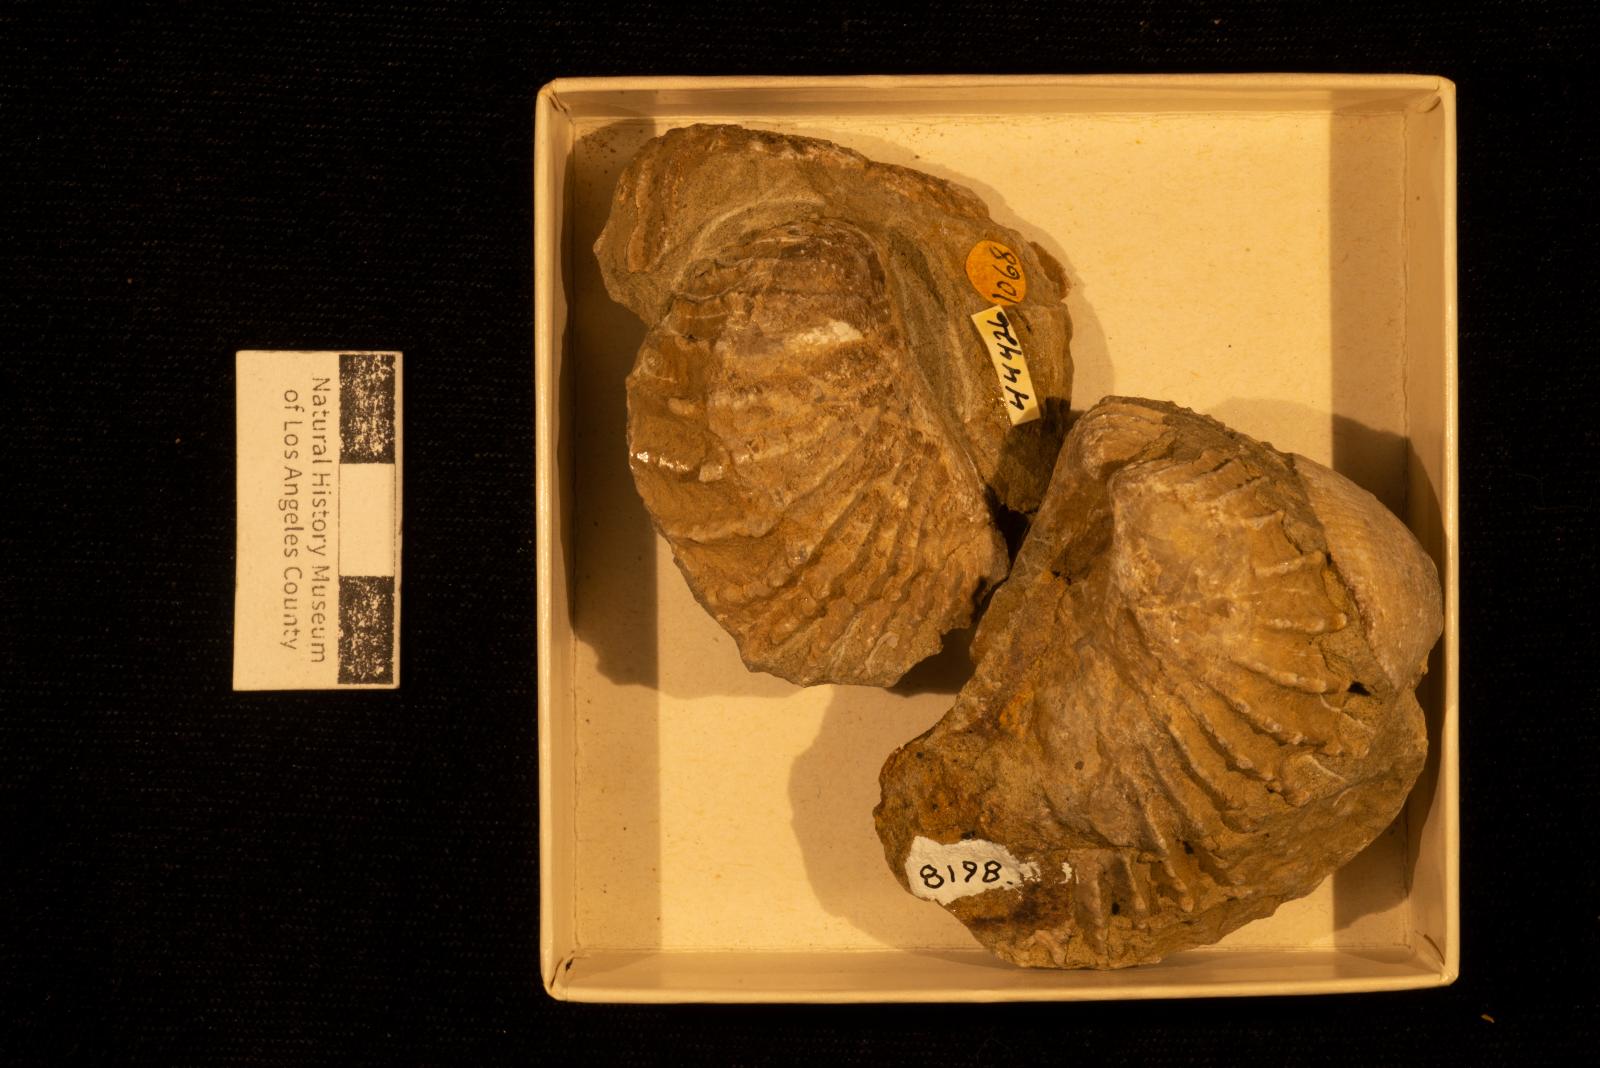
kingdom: Animalia
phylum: Mollusca
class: Bivalvia
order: Trigoniida
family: Pterotrigoniidae
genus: Notoscabrotrigonia
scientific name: Notoscabrotrigonia klamathonia
